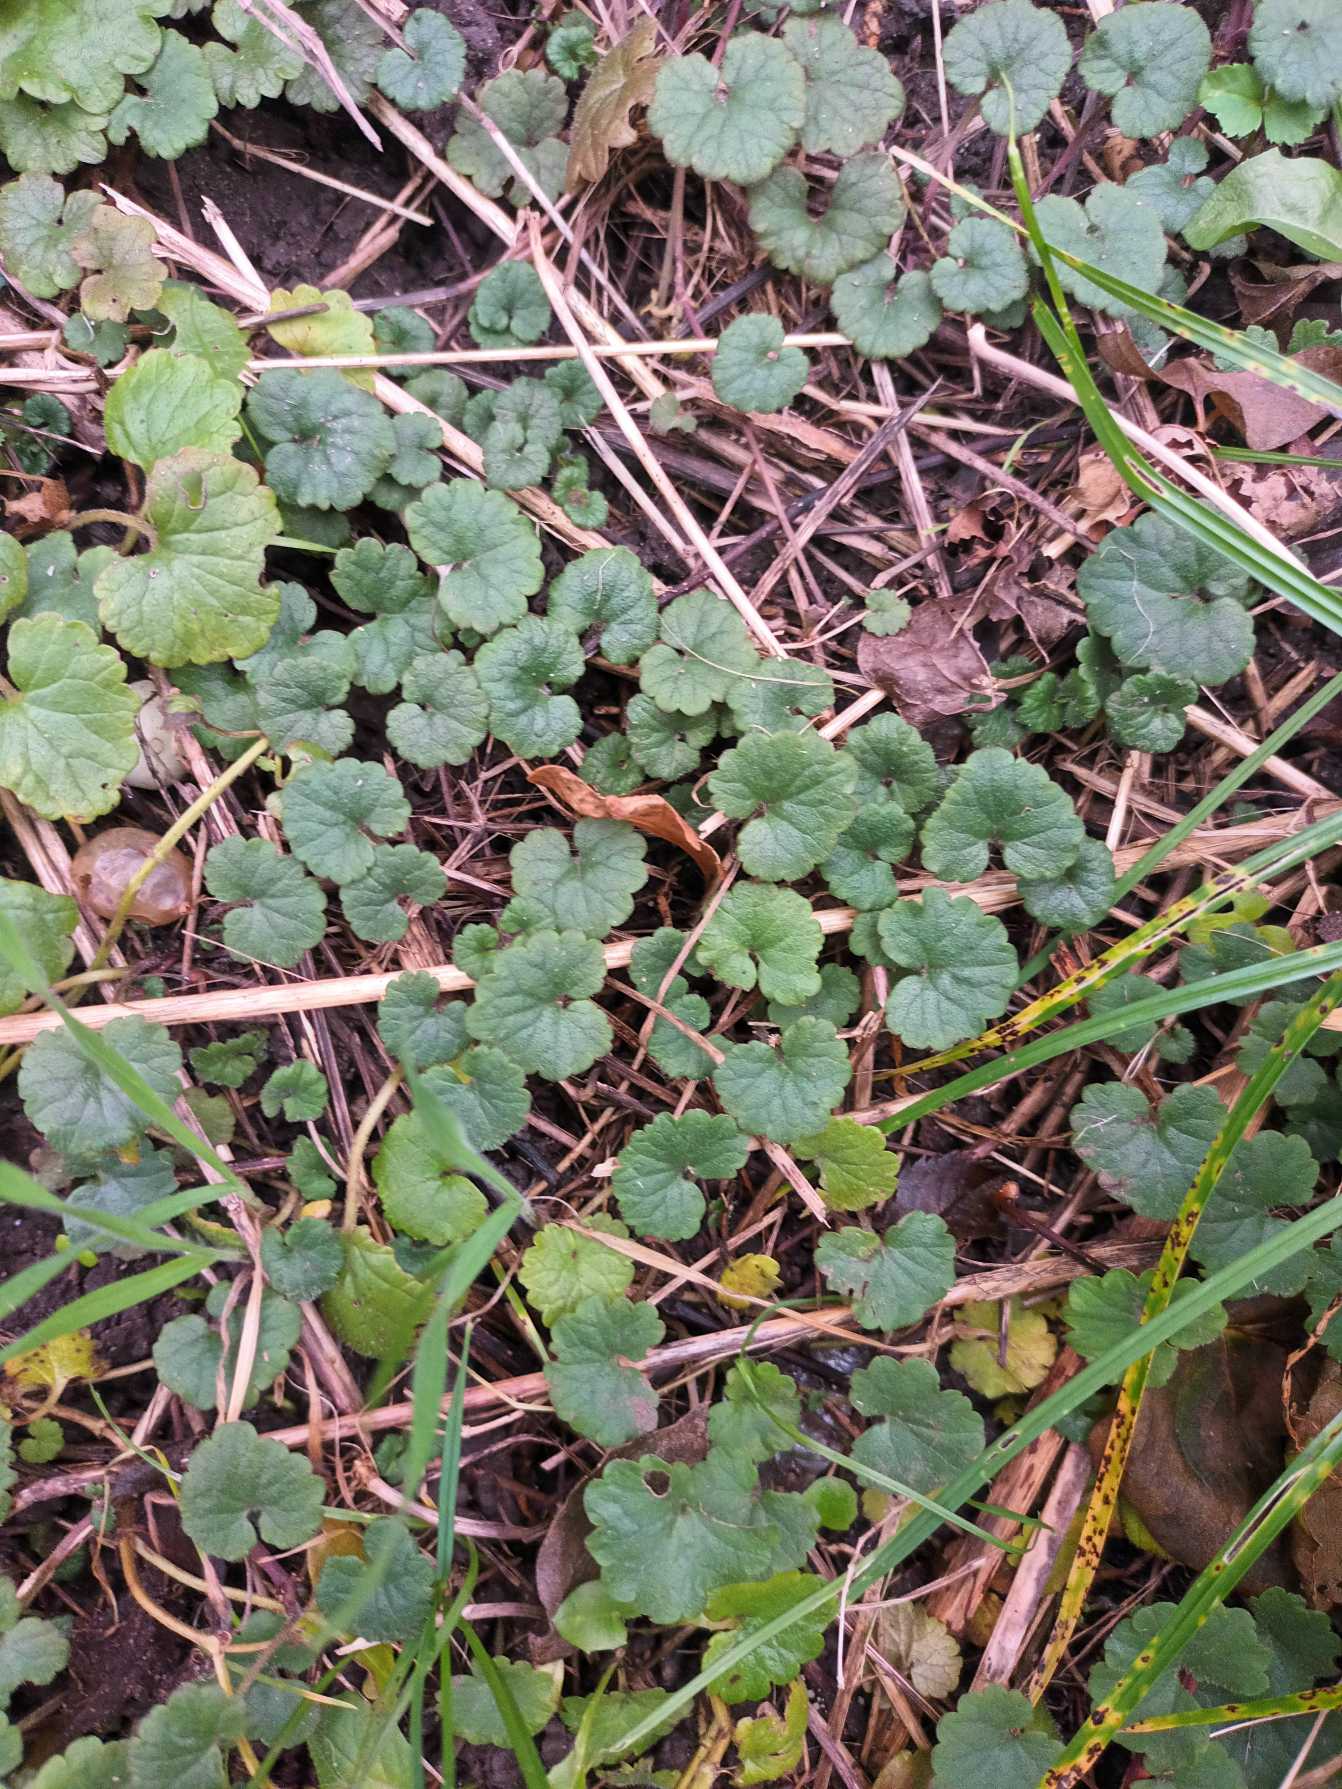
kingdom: Plantae
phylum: Tracheophyta
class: Magnoliopsida
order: Lamiales
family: Lamiaceae
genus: Glechoma
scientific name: Glechoma hederacea
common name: Korsknap
